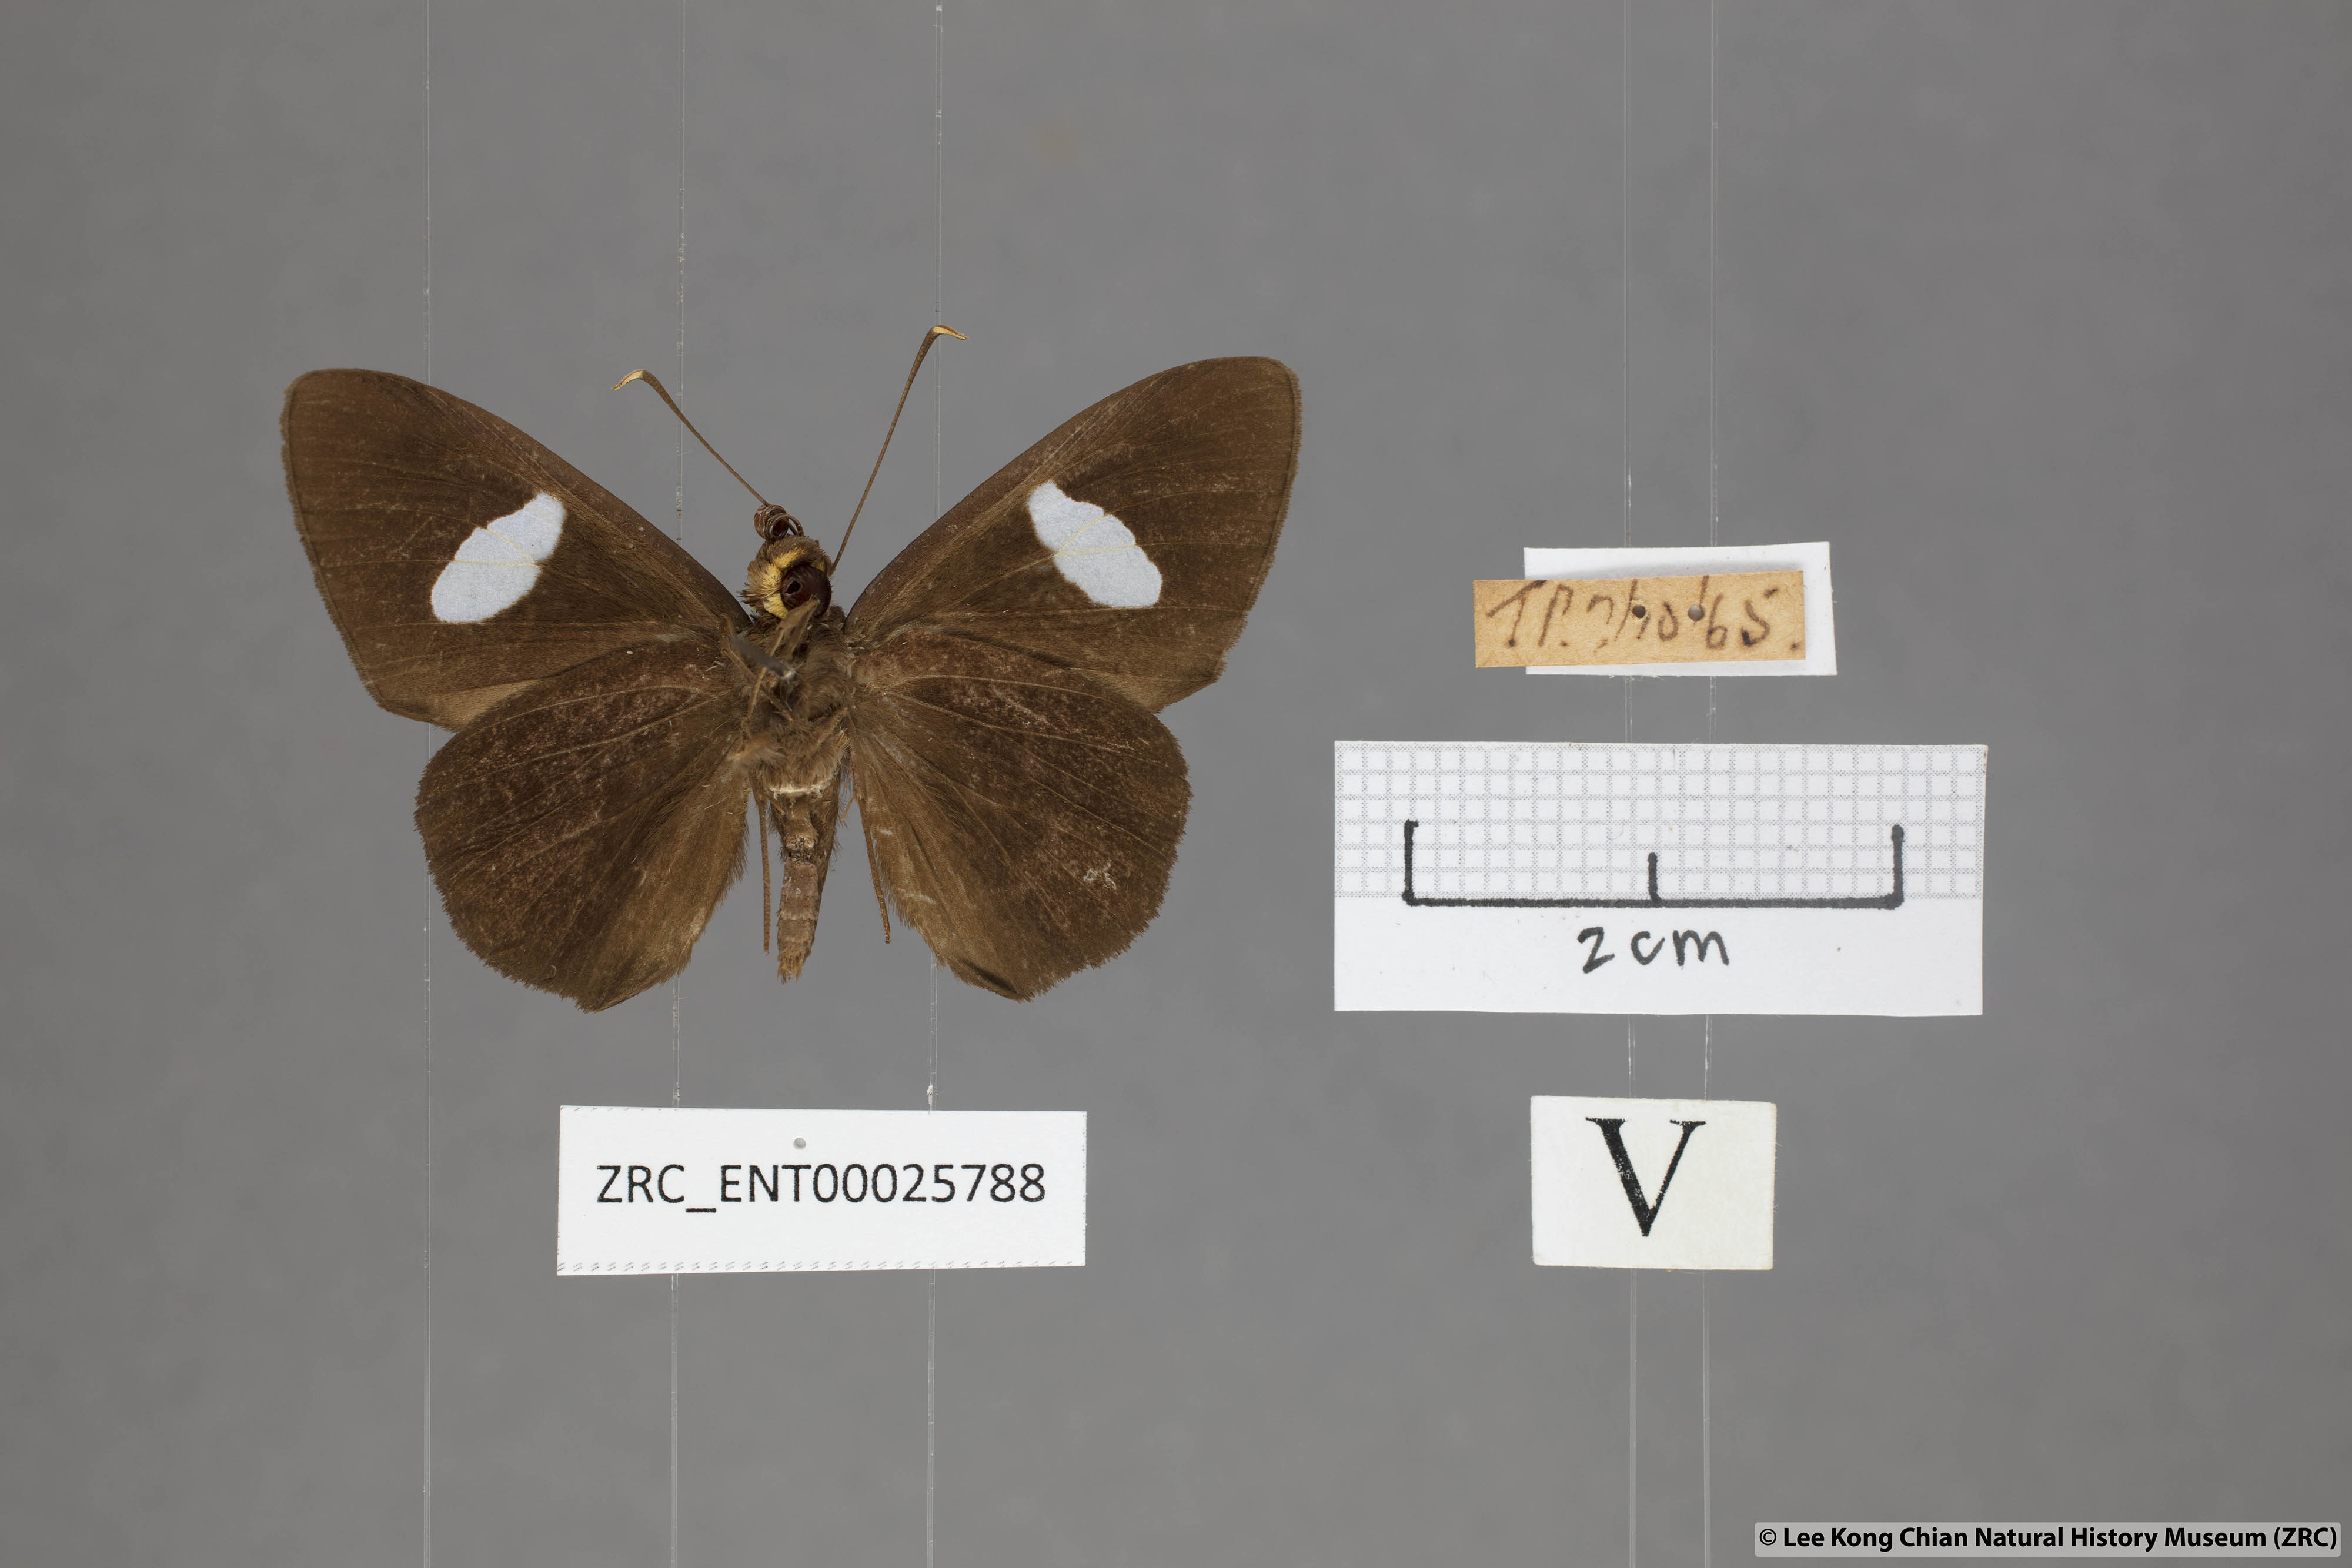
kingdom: Animalia
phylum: Arthropoda
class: Insecta
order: Lepidoptera
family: Hesperiidae
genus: Celaenorrhinus
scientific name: Celaenorrhinus ficulnea
